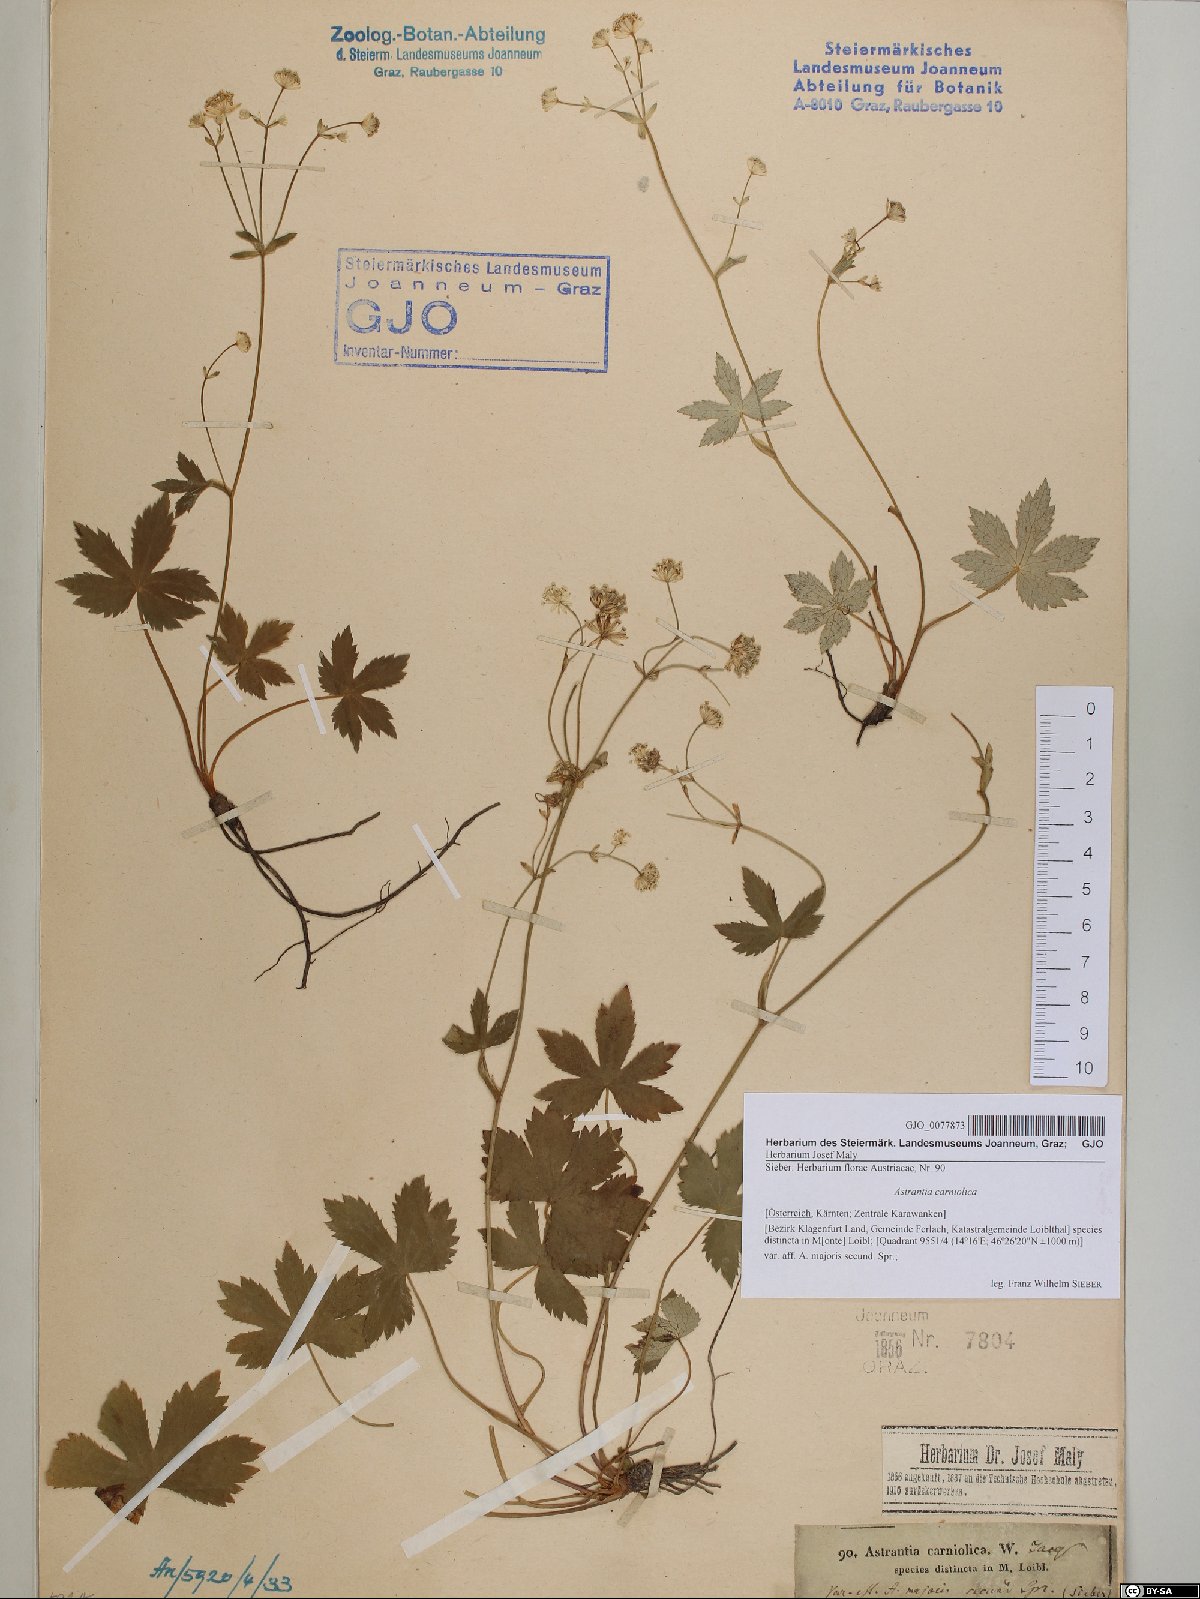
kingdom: Plantae
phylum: Tracheophyta
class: Magnoliopsida
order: Apiales
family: Apiaceae
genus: Astrantia
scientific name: Astrantia carniolica
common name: Carnic masterwort
